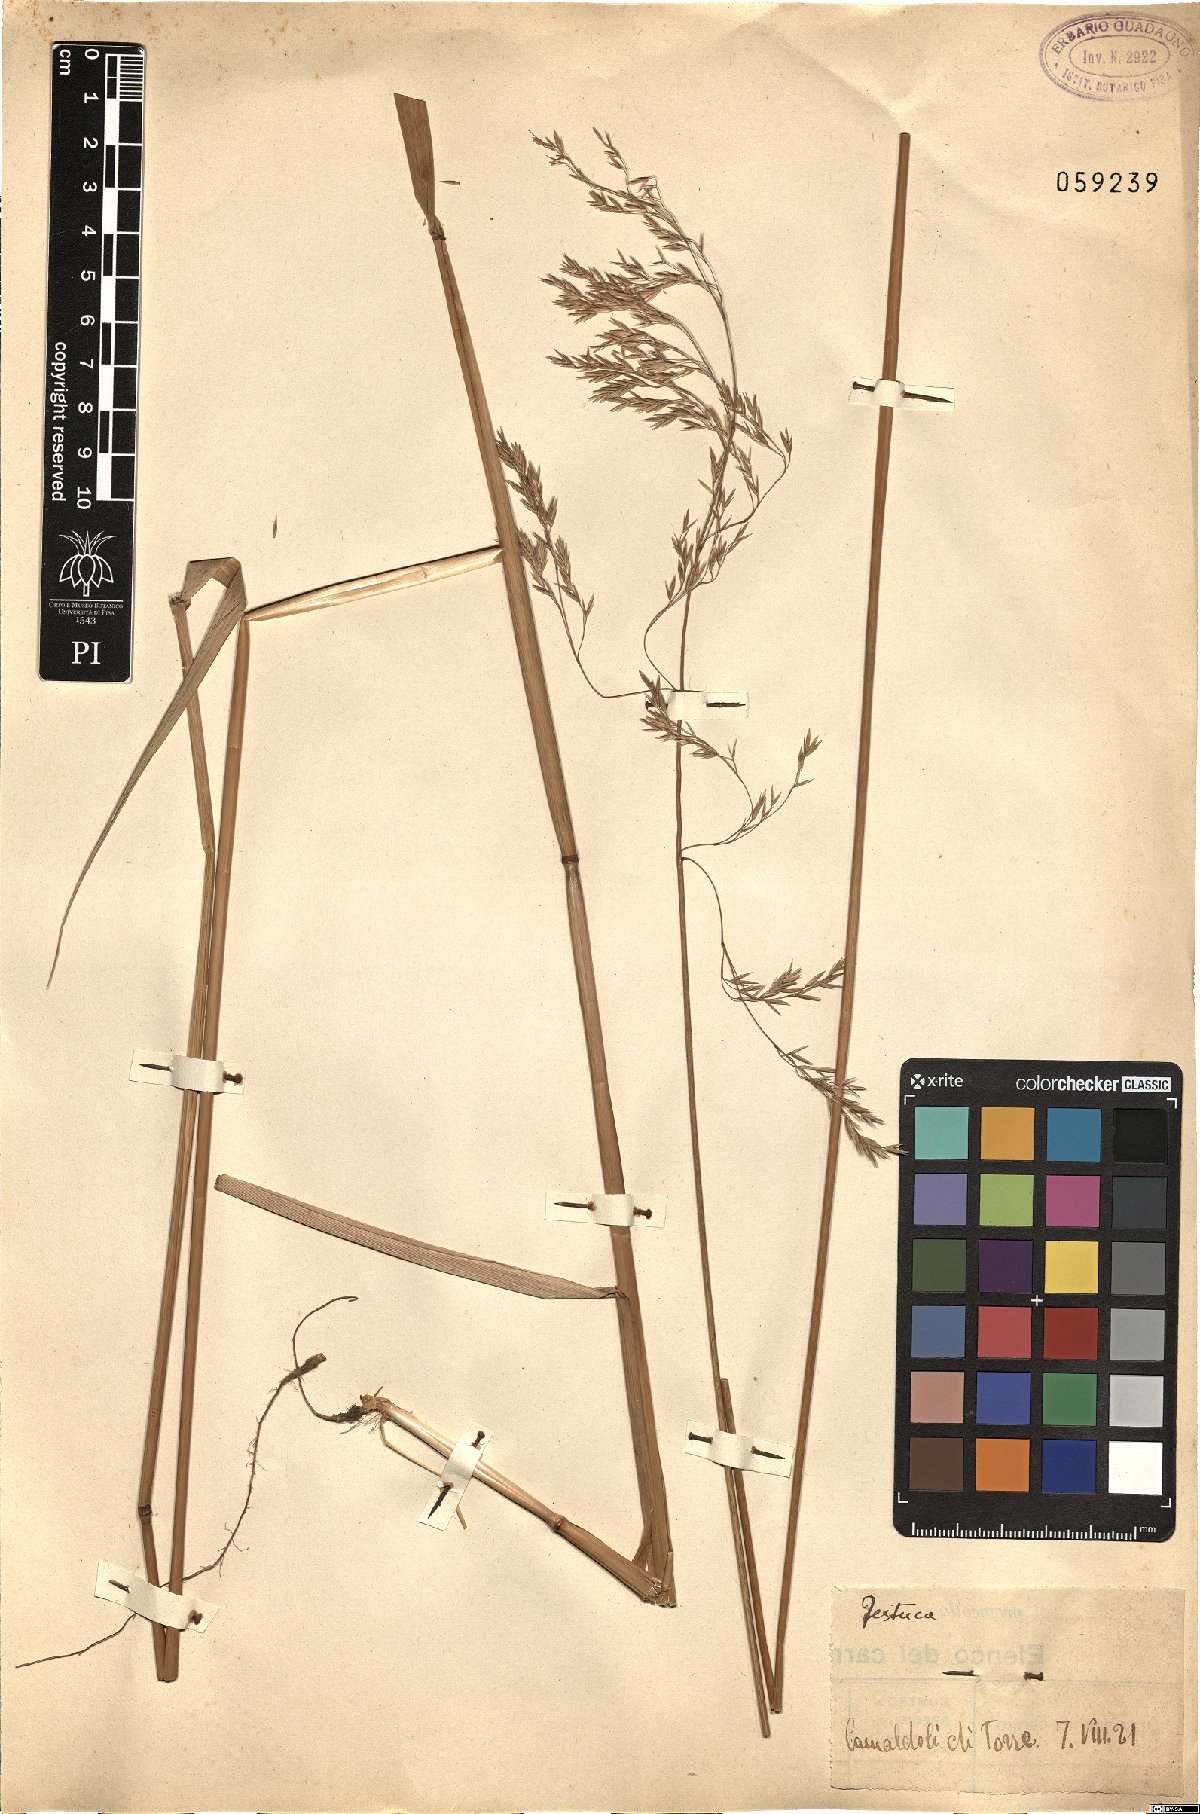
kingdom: Plantae
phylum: Tracheophyta
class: Liliopsida
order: Poales
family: Poaceae
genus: Festuca
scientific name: Festuca
